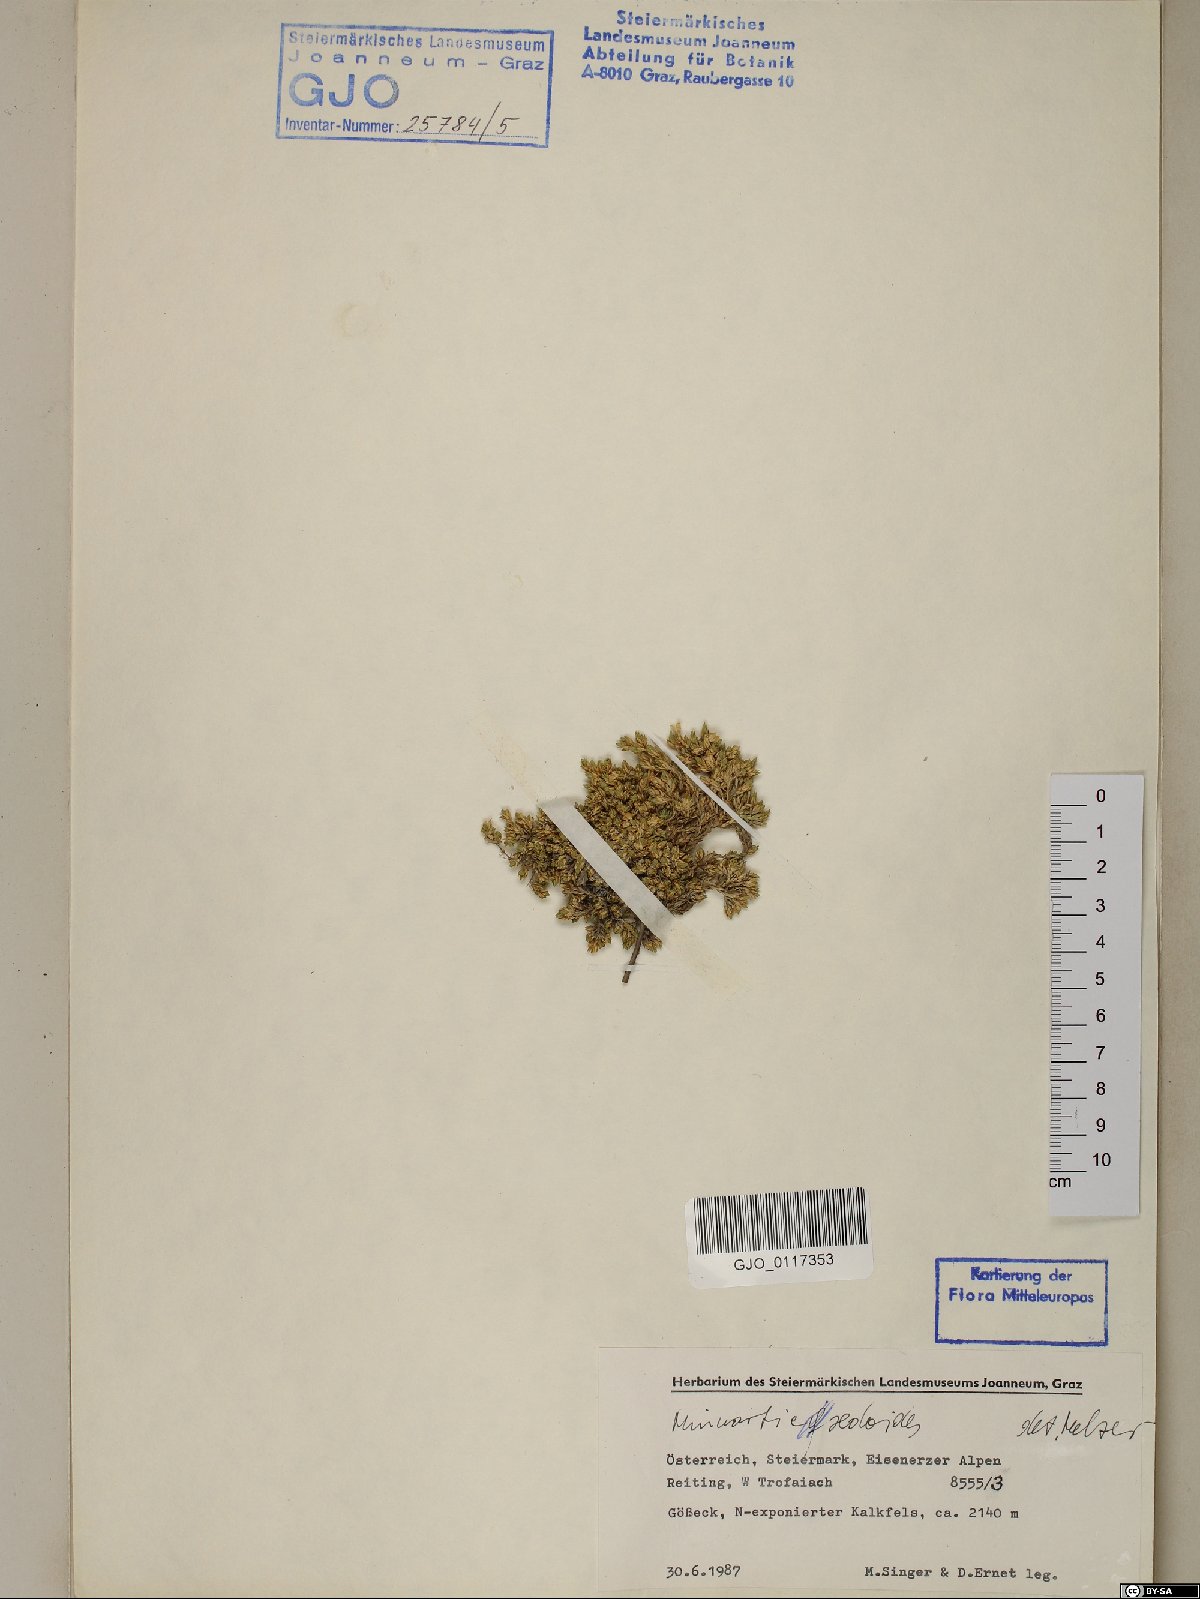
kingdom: Plantae
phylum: Tracheophyta
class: Magnoliopsida
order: Caryophyllales
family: Caryophyllaceae
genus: Cherleria
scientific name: Cherleria sedoides
